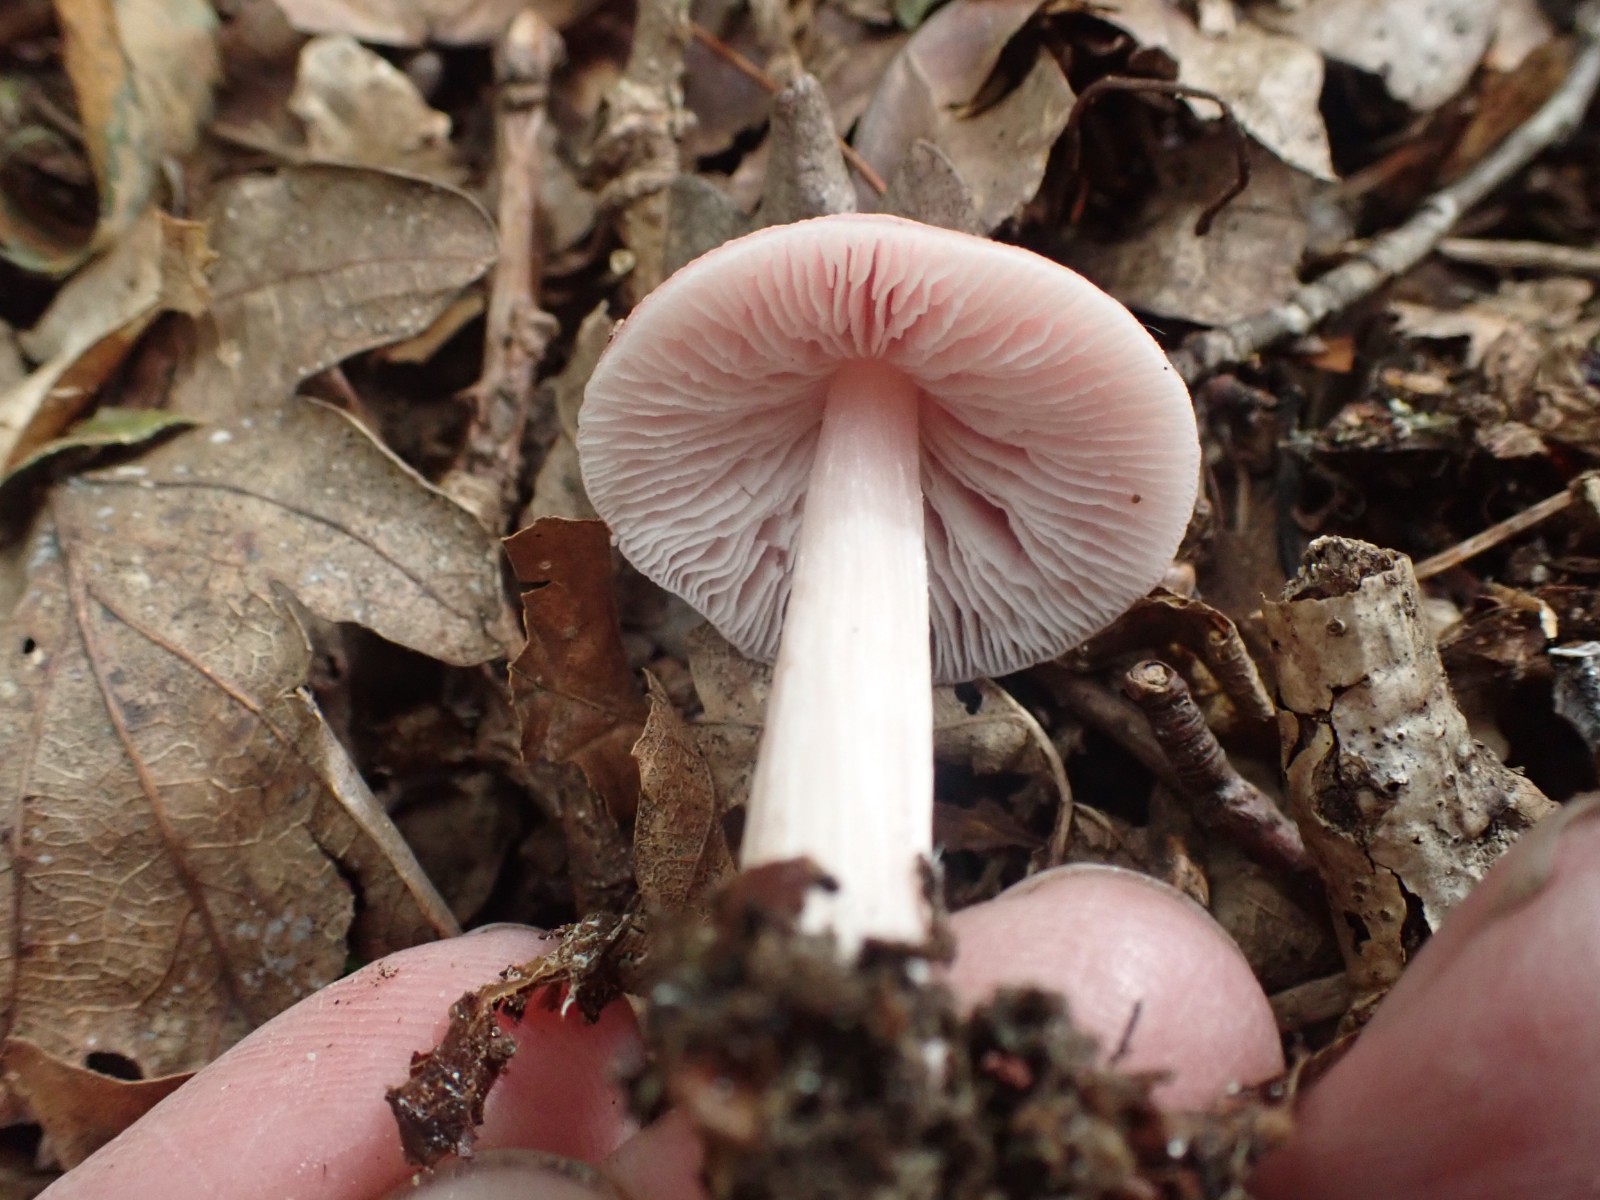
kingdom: Fungi
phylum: Basidiomycota
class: Agaricomycetes
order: Agaricales
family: Mycenaceae
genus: Mycena
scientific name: Mycena rosea
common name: rosa huesvamp
